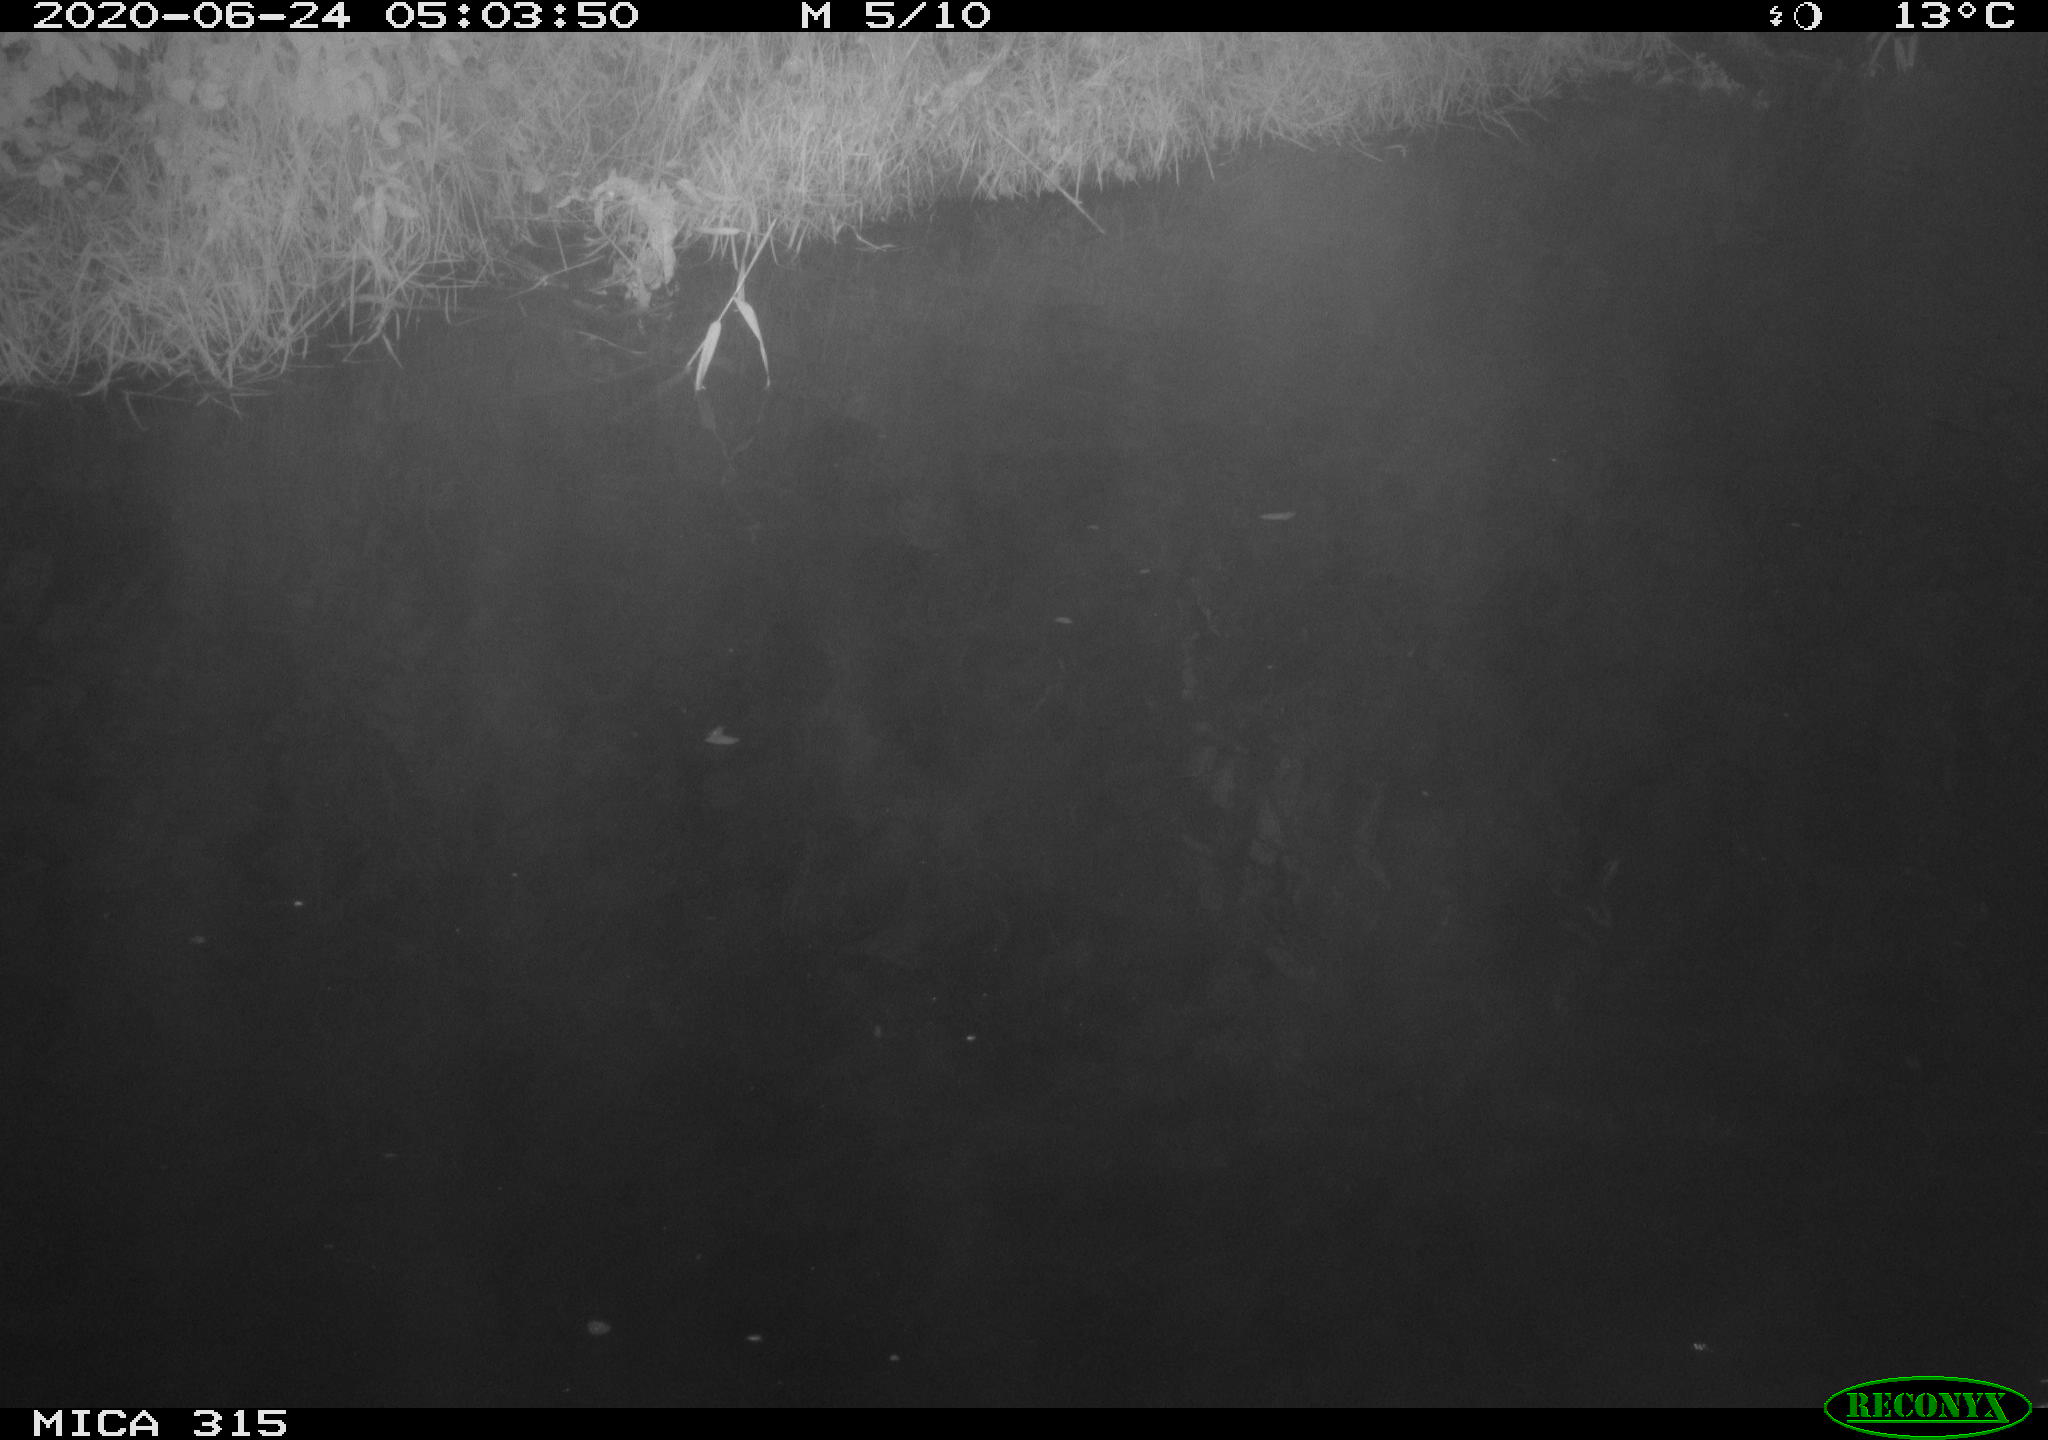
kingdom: Animalia
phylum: Chordata
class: Aves
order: Anseriformes
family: Anatidae
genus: Anas
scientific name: Anas platyrhynchos
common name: Mallard
